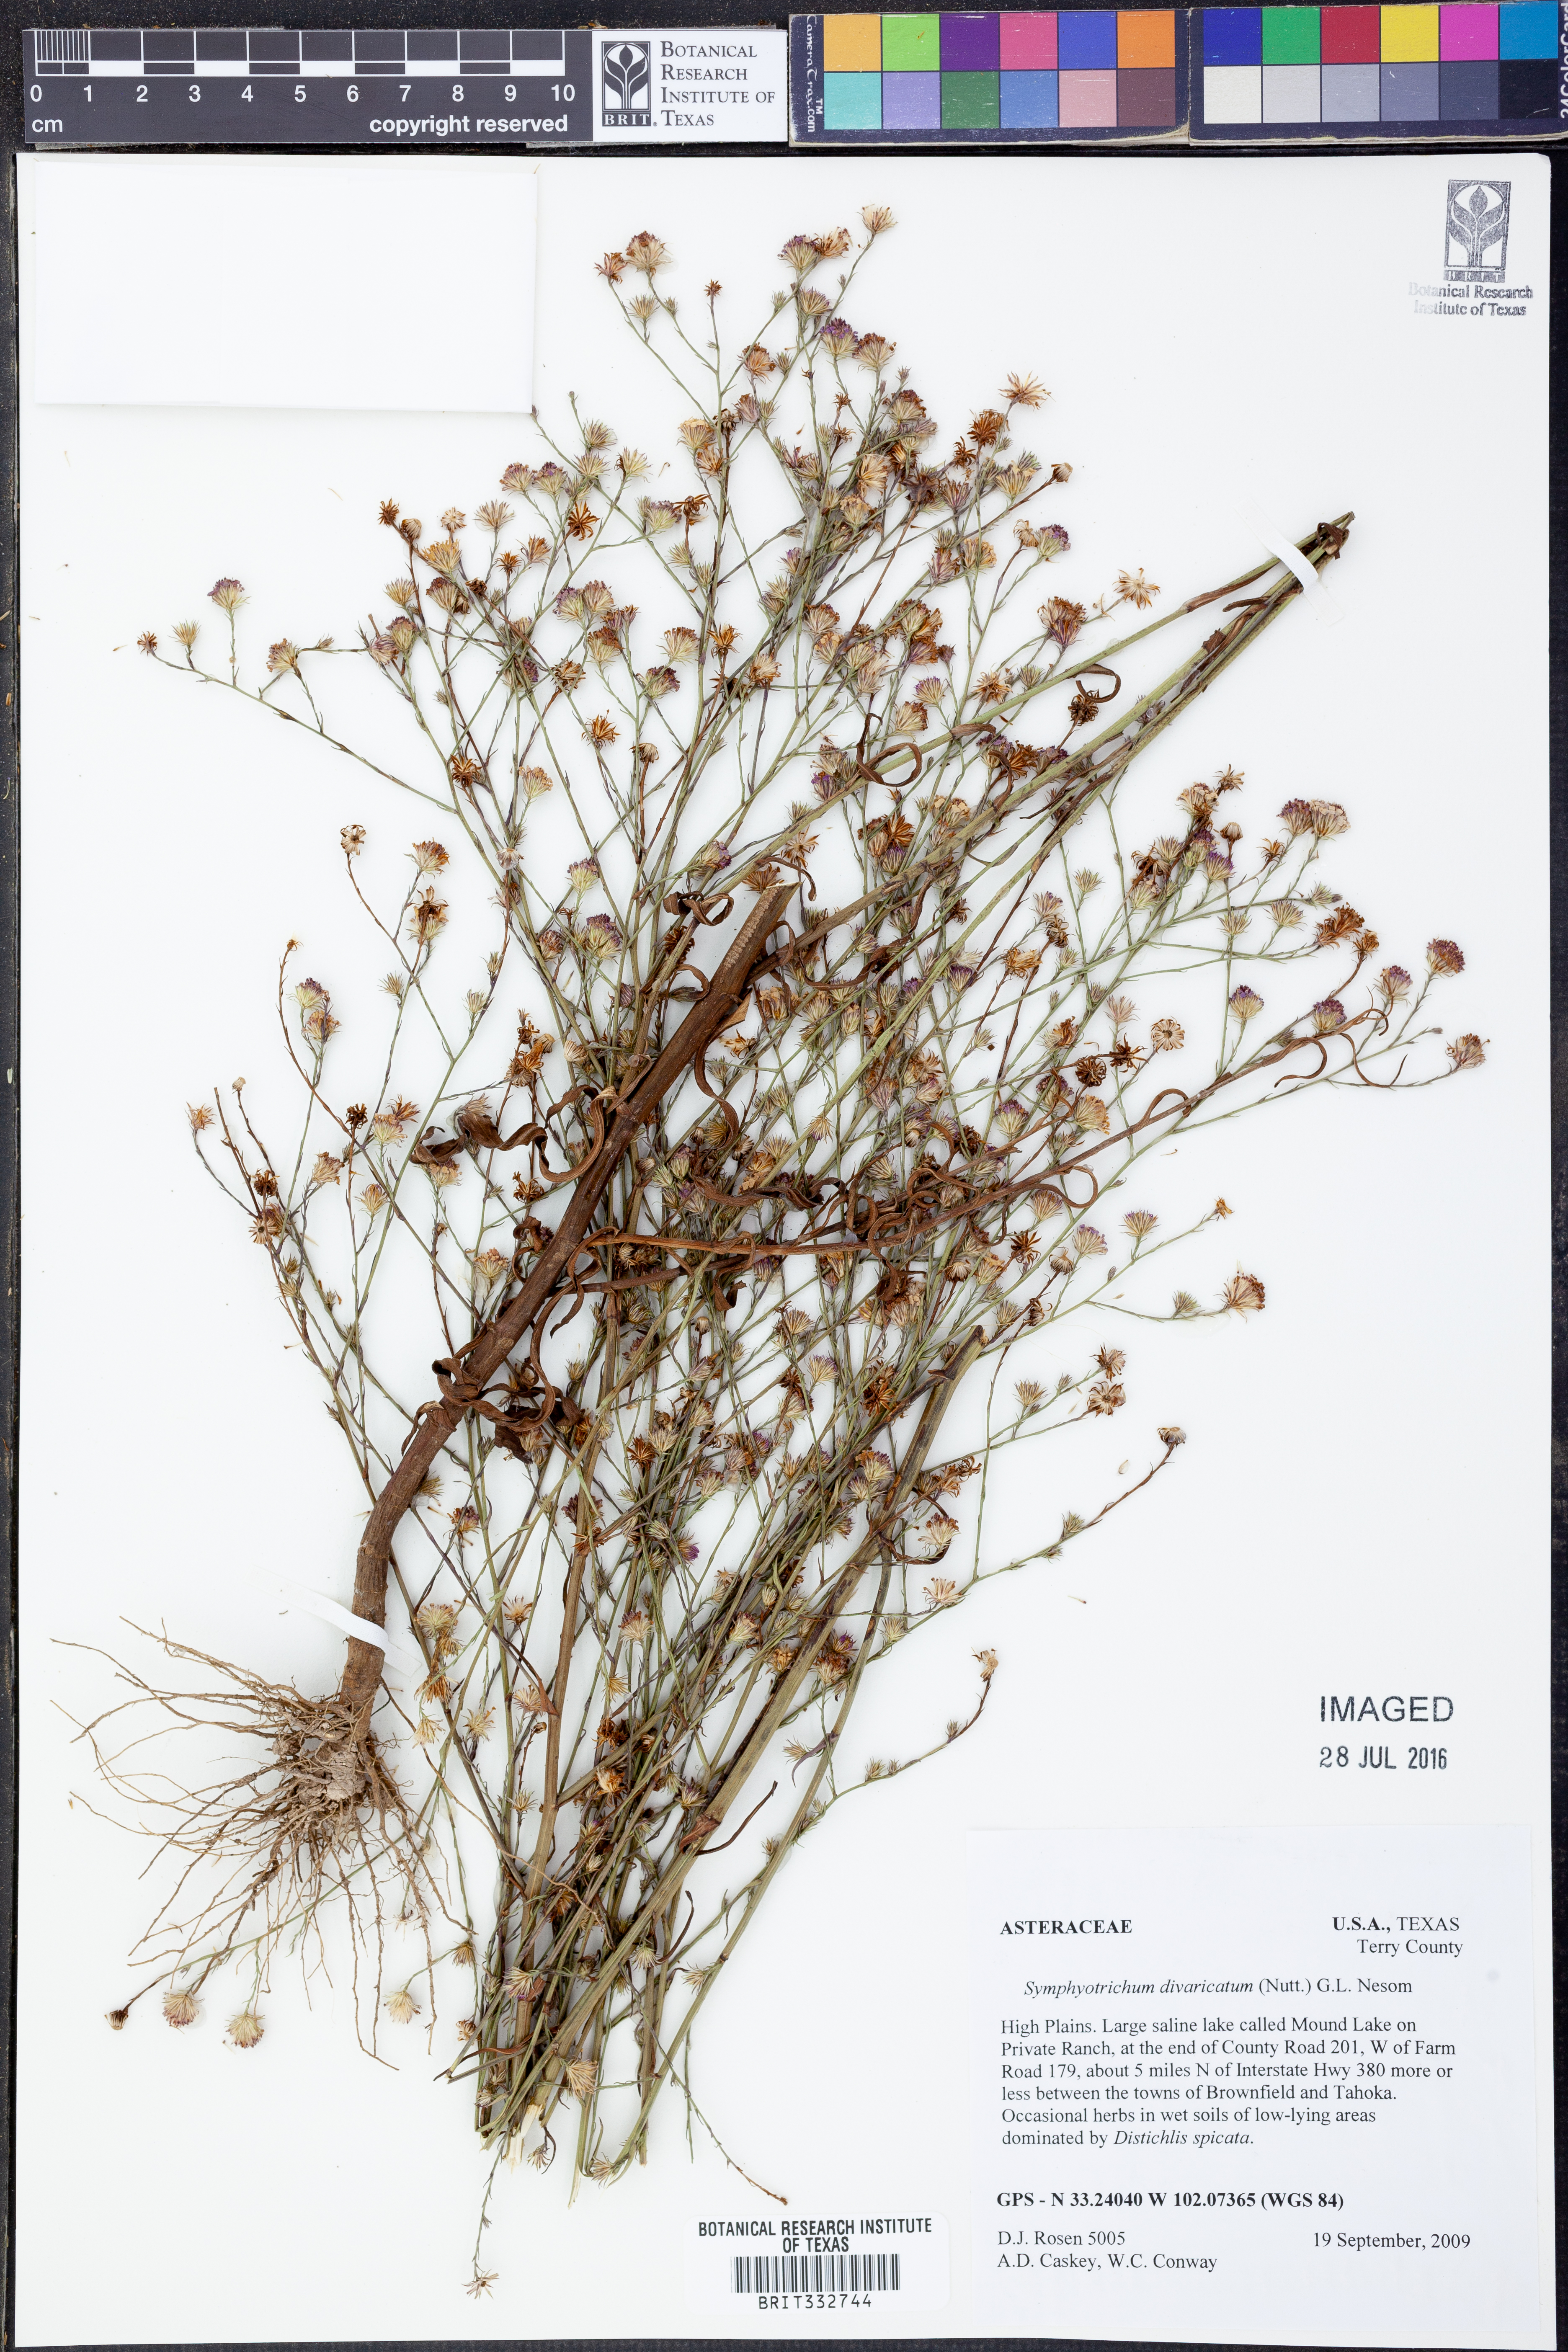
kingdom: Plantae
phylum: Tracheophyta
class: Magnoliopsida
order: Asterales
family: Asteraceae
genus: Symphyotrichum
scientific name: Symphyotrichum divaricatum
